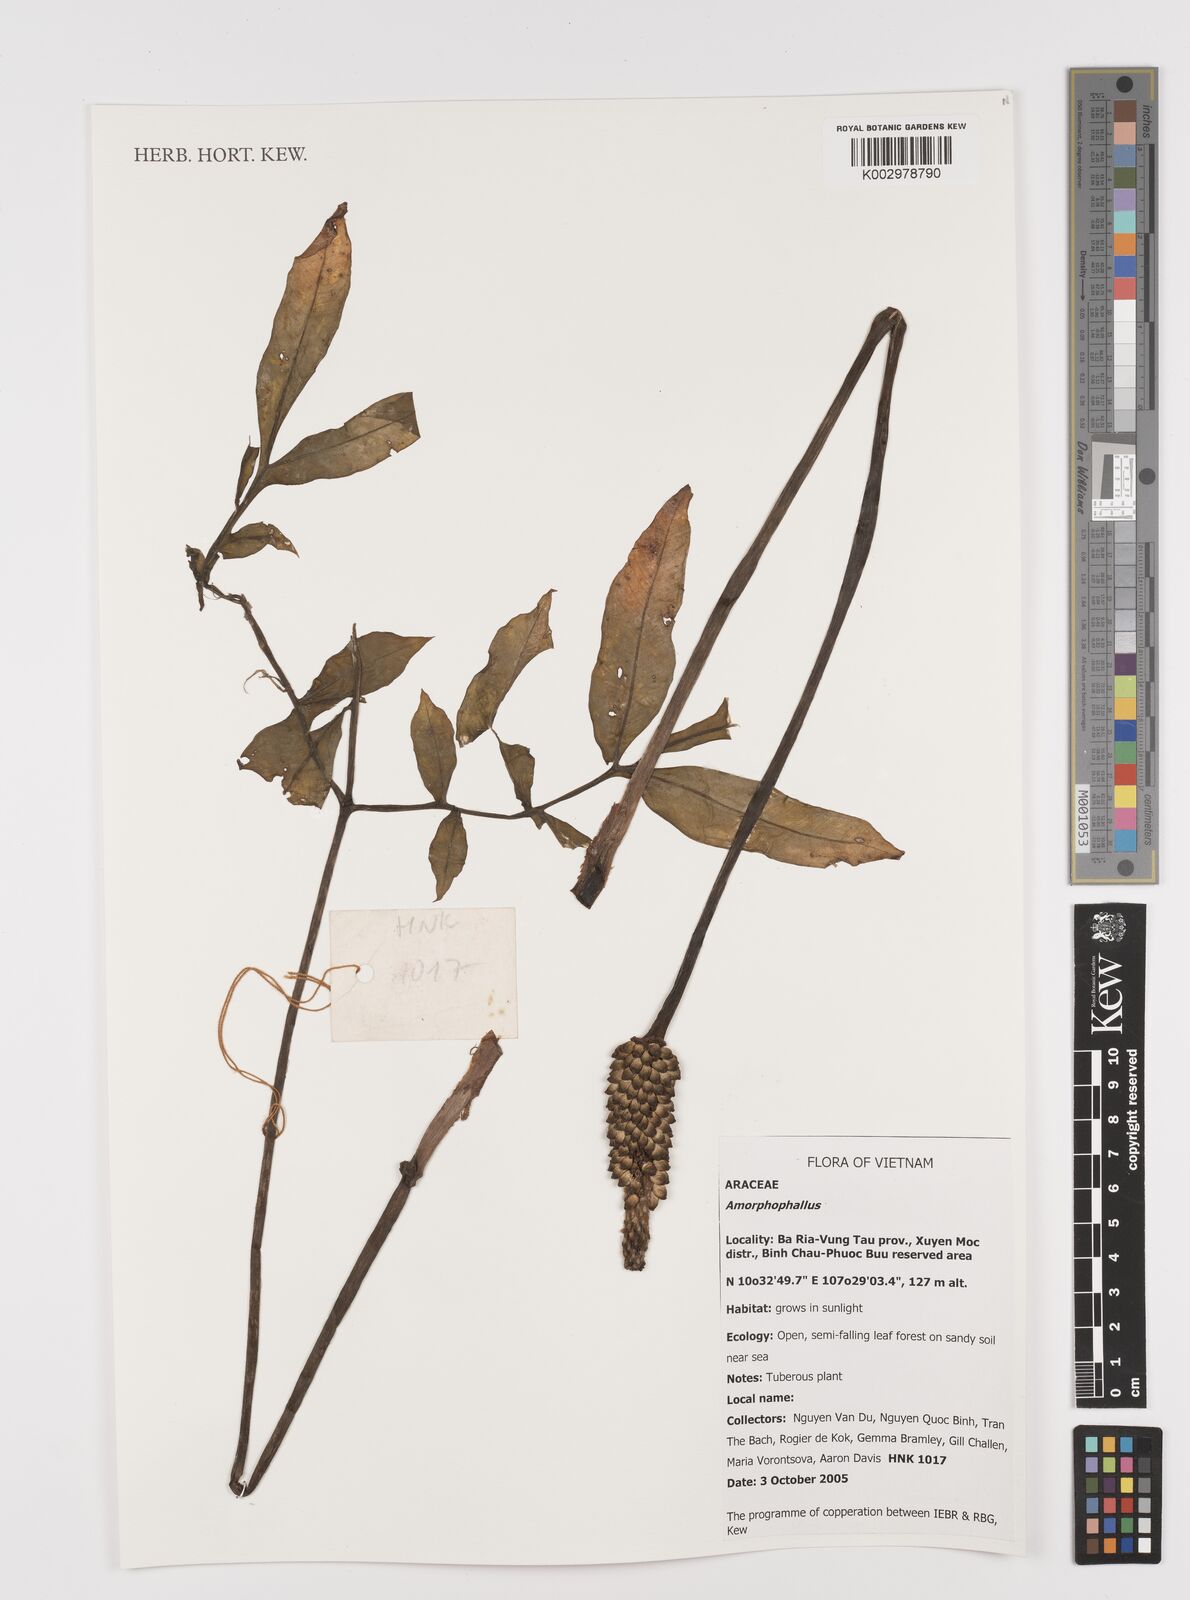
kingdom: Plantae
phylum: Tracheophyta
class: Liliopsida
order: Alismatales
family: Araceae
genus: Amorphophallus
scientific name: Amorphophallus
